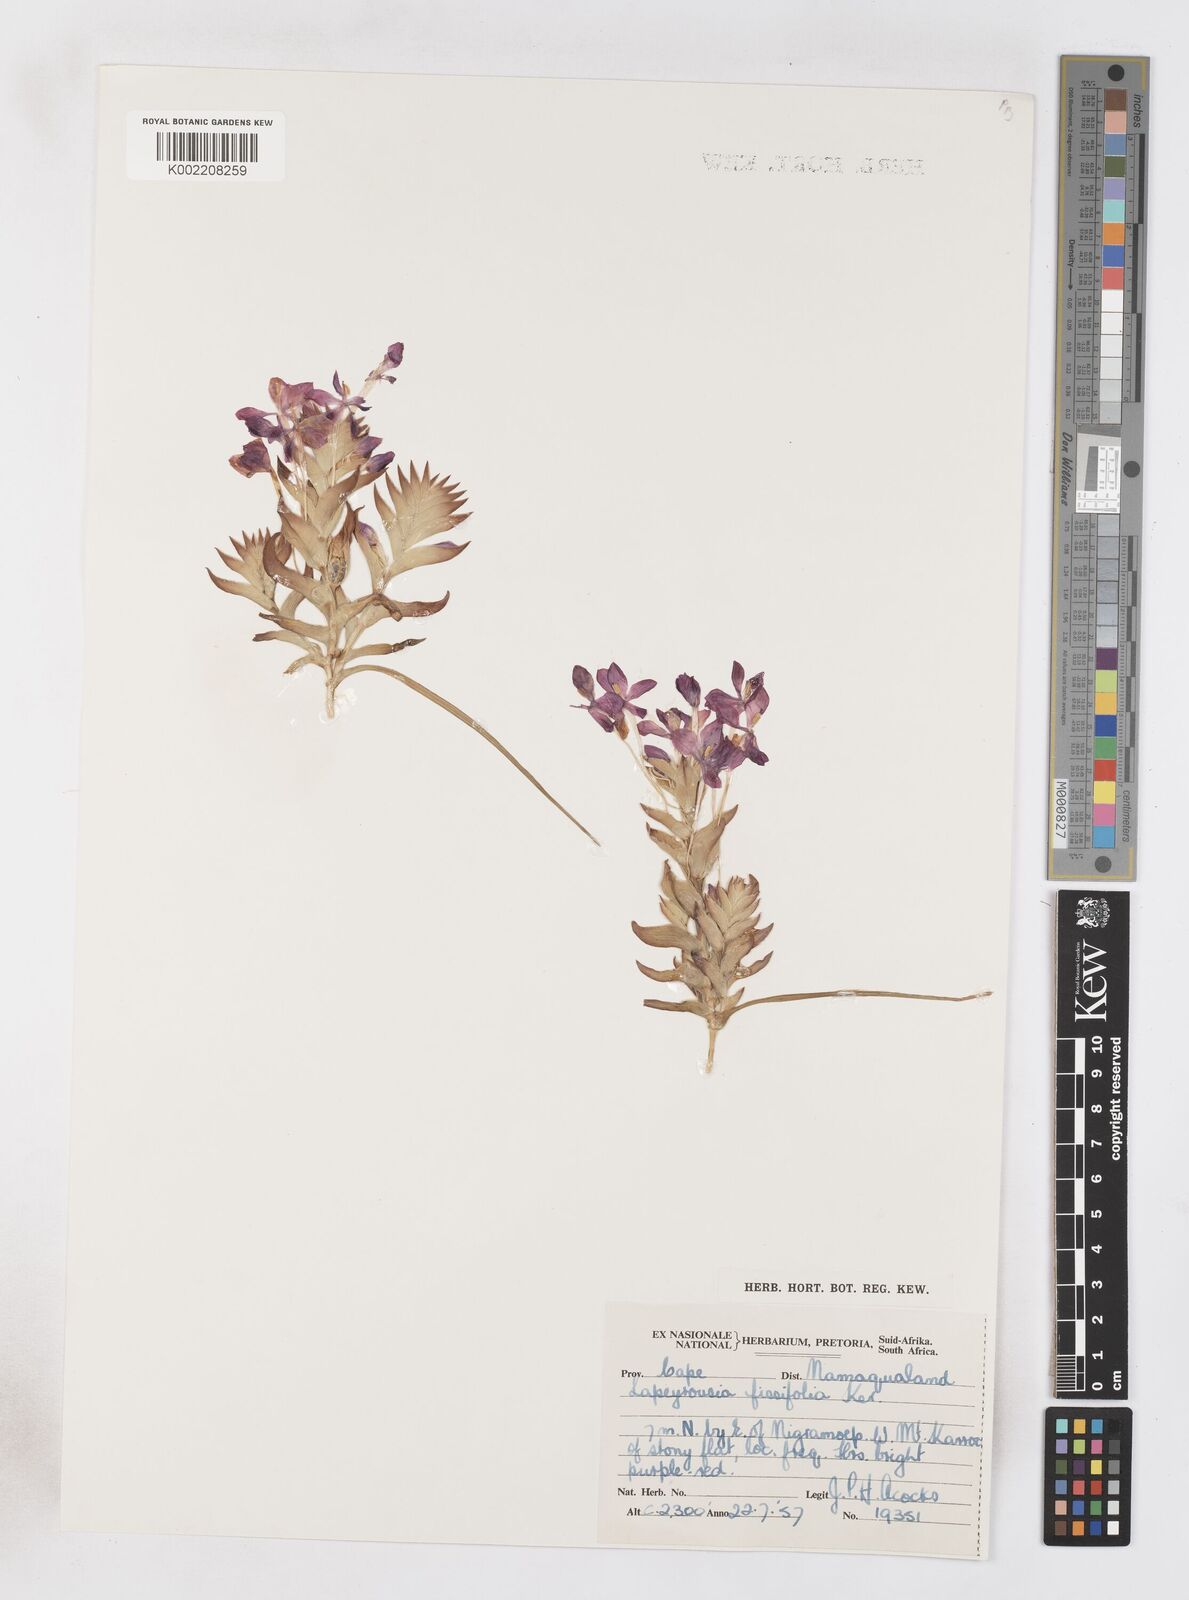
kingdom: Plantae
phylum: Tracheophyta
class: Liliopsida
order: Asparagales
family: Iridaceae
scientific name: Iridaceae
